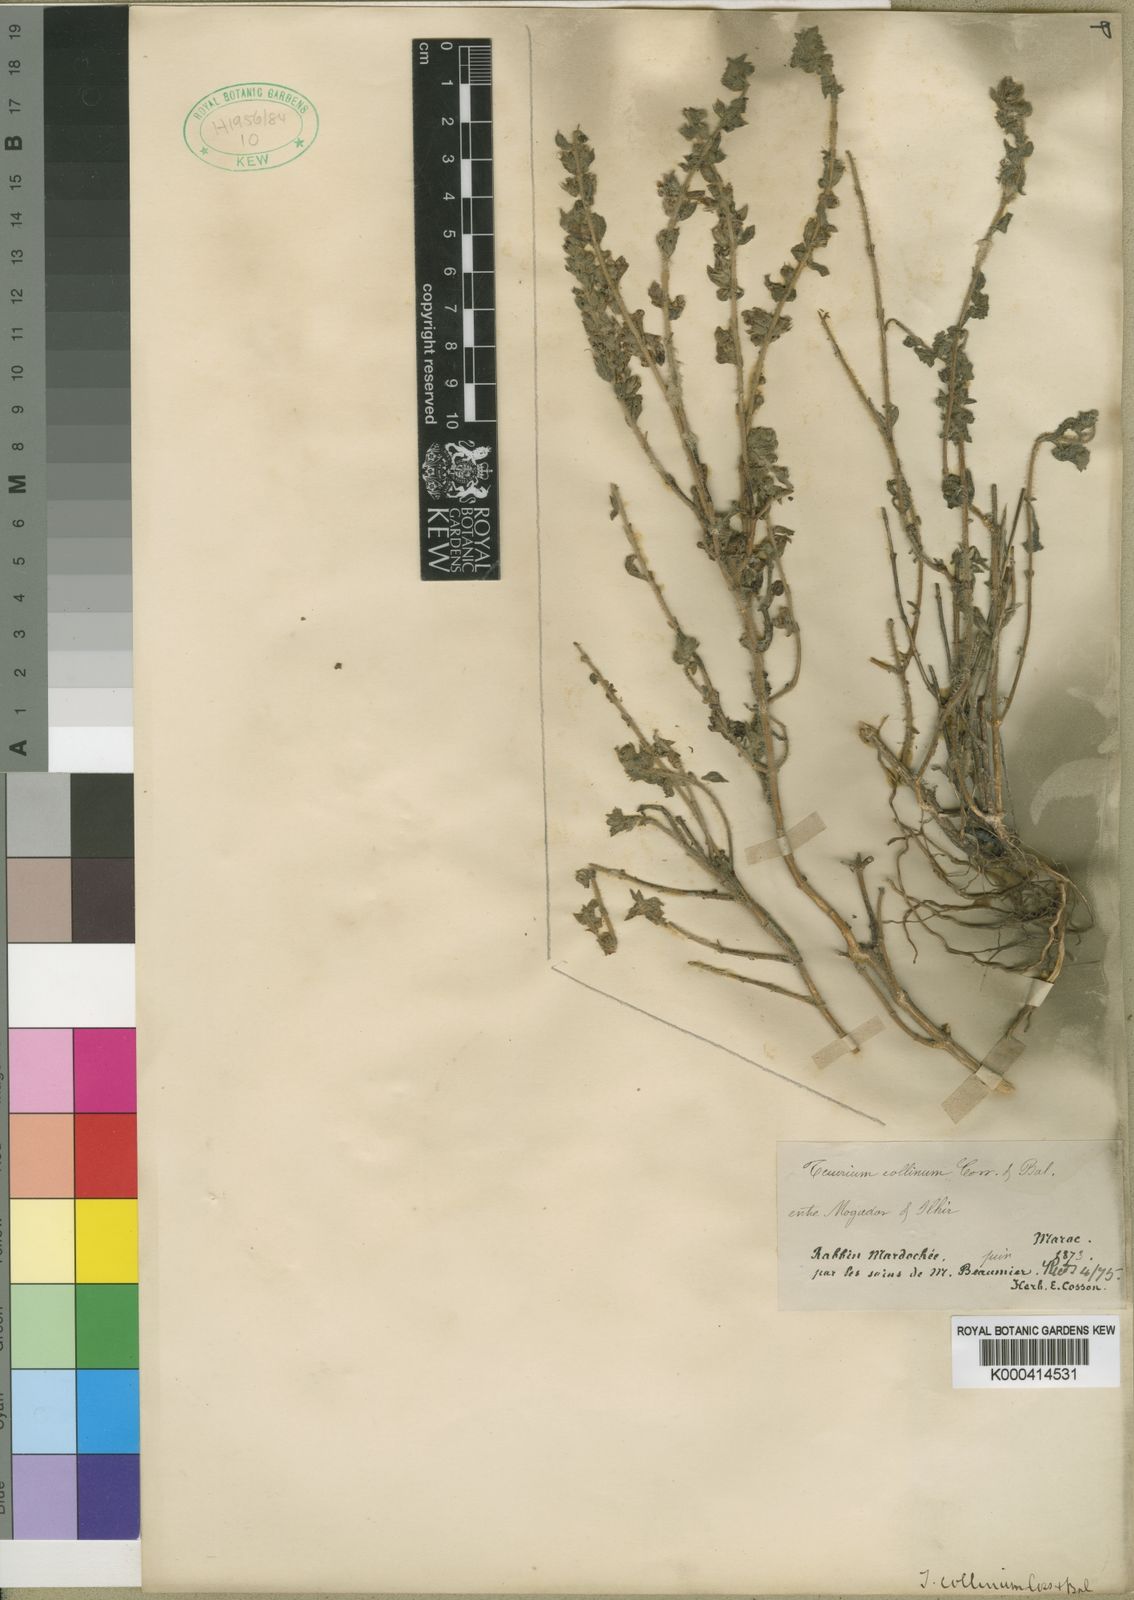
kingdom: Plantae
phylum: Tracheophyta
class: Magnoliopsida
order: Lamiales
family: Lamiaceae
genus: Teucrium
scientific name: Teucrium demnatense
